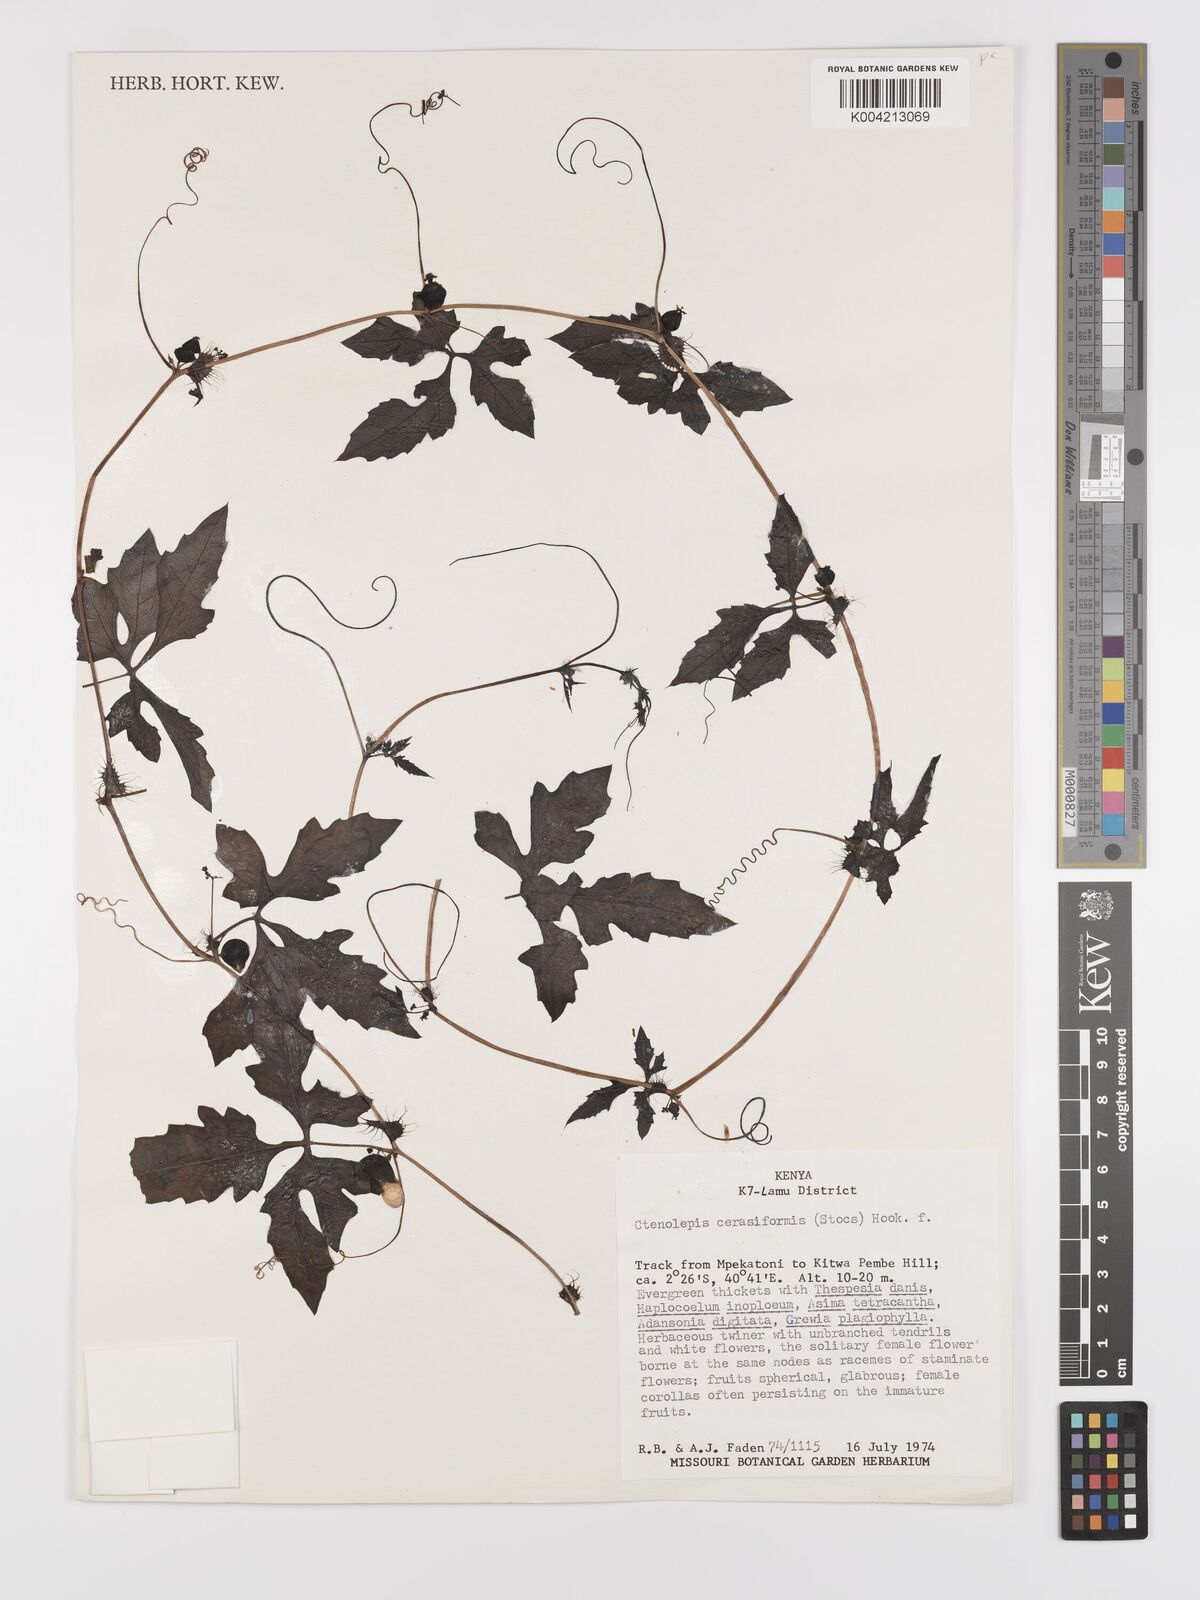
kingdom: Plantae
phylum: Tracheophyta
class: Magnoliopsida
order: Cucurbitales
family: Cucurbitaceae
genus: Blastania
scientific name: Blastania cerasiformis
